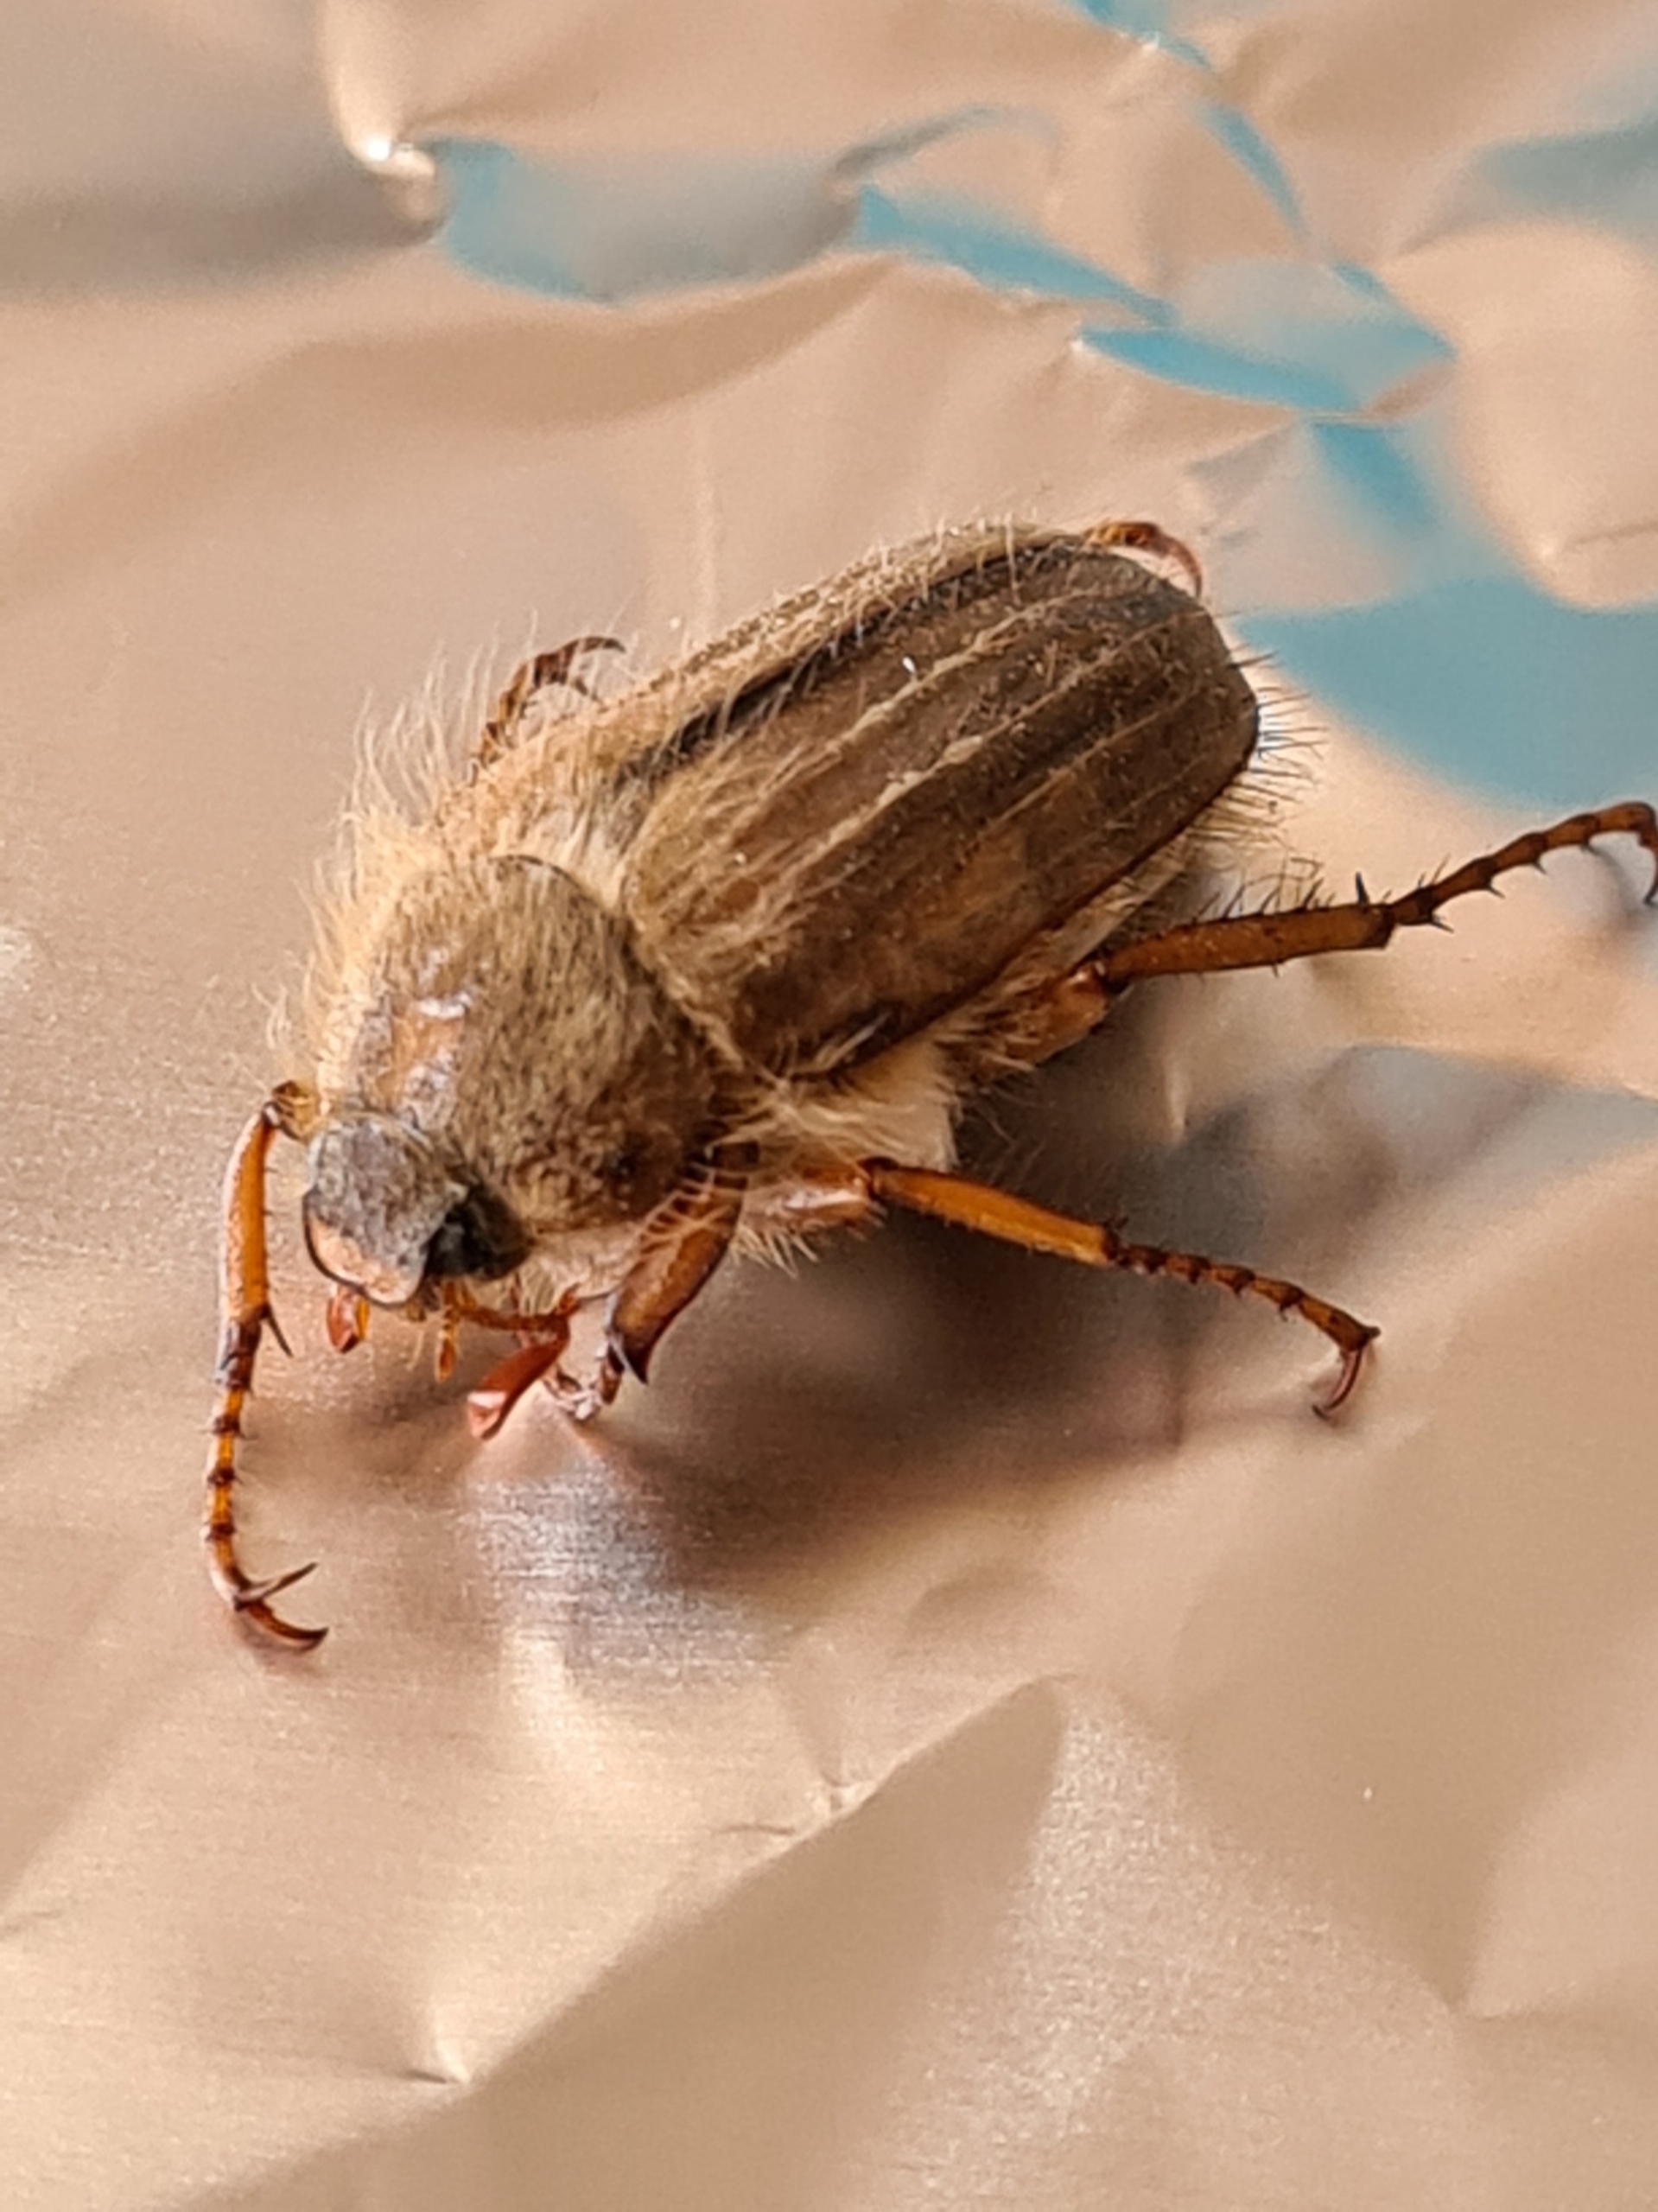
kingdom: Animalia
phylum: Arthropoda
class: Insecta
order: Coleoptera
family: Scarabaeidae
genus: Amphimallon
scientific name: Amphimallon solstitiale
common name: Sankthansoldenborre
